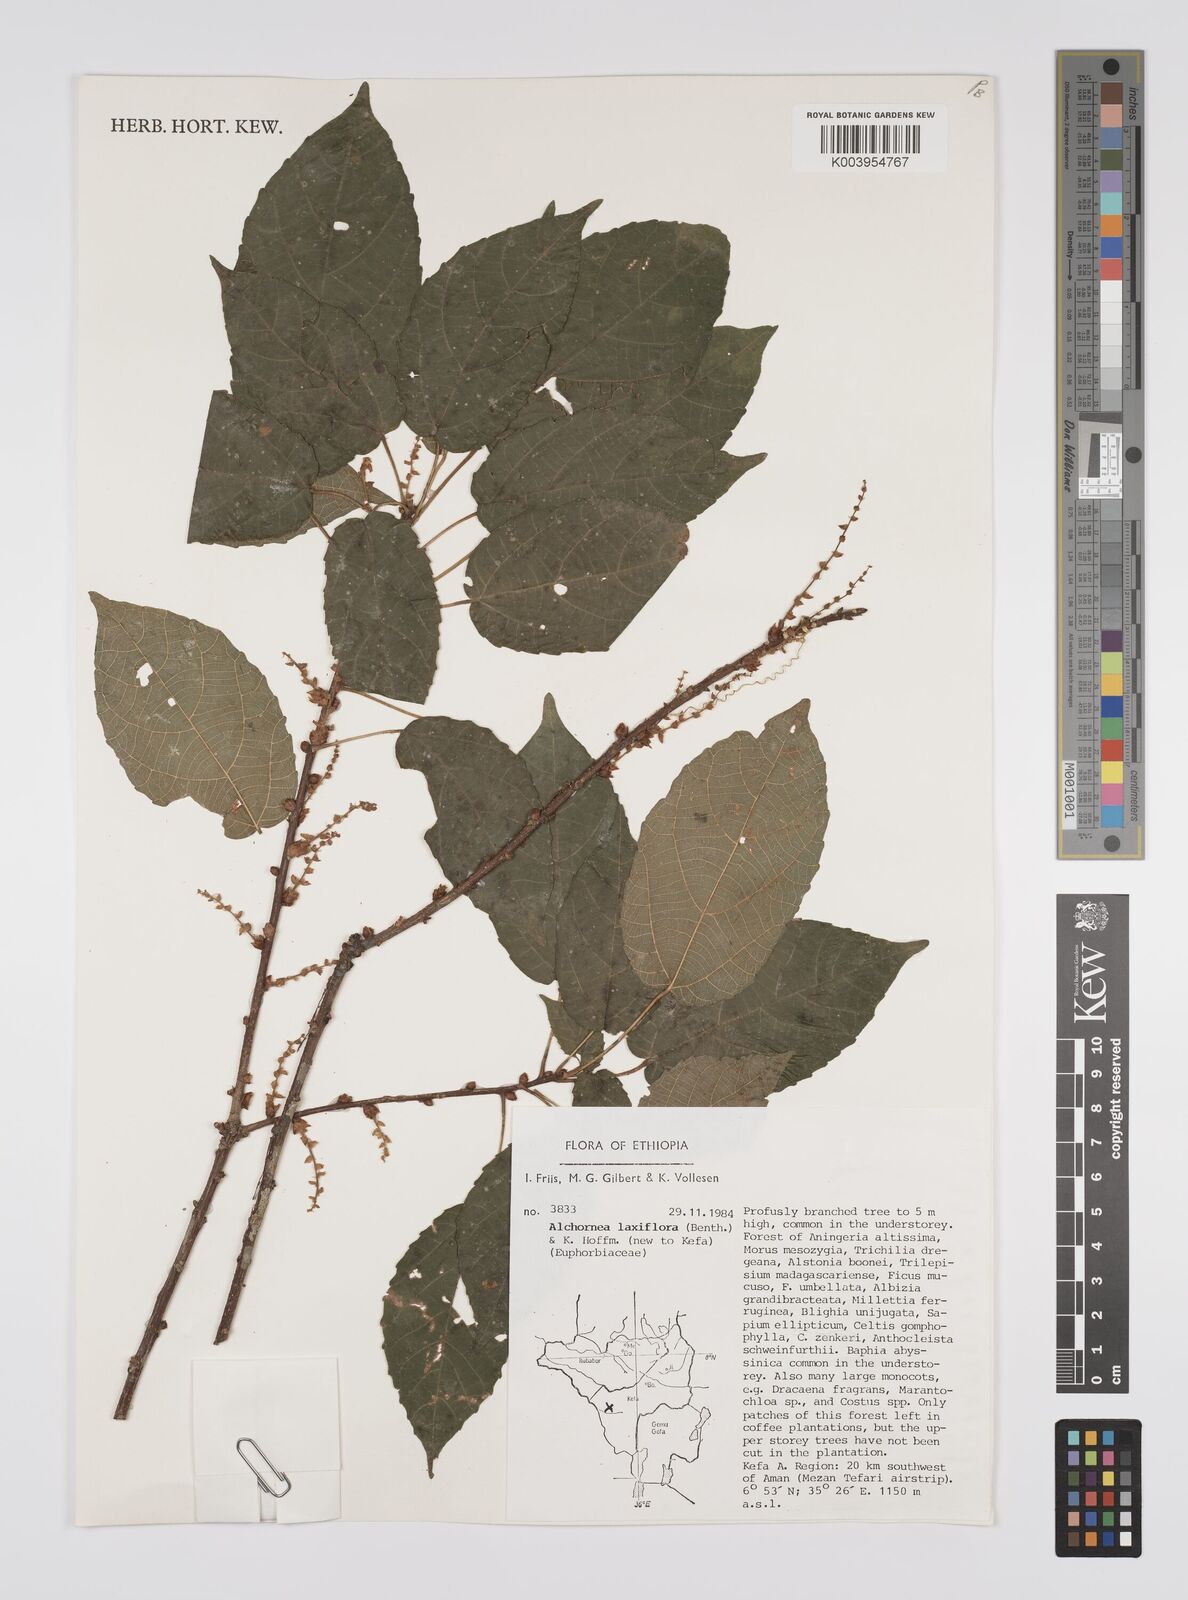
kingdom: Plantae
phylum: Tracheophyta
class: Magnoliopsida
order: Malpighiales
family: Euphorbiaceae
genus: Alchornea
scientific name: Alchornea laxiflora
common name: Lowveld bead-string
